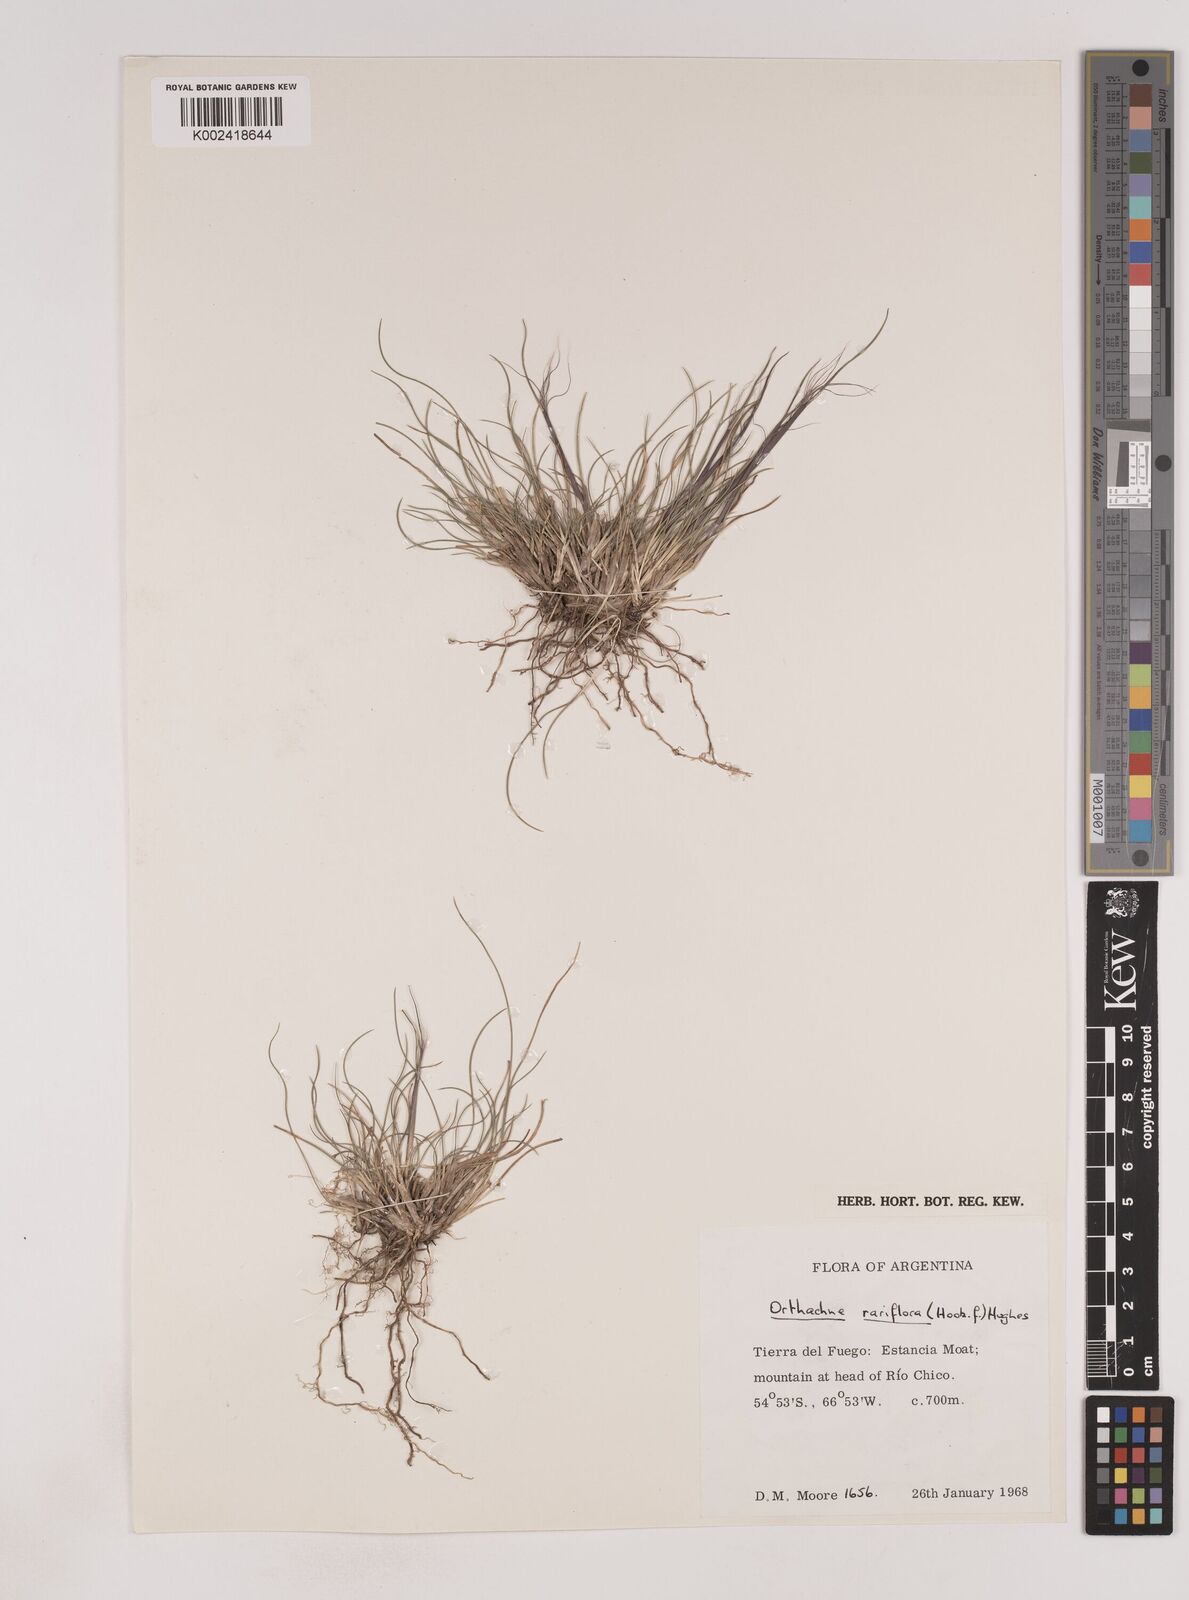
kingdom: Plantae
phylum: Tracheophyta
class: Liliopsida
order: Poales
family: Poaceae
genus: Ortachne
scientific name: Ortachne rariflora
